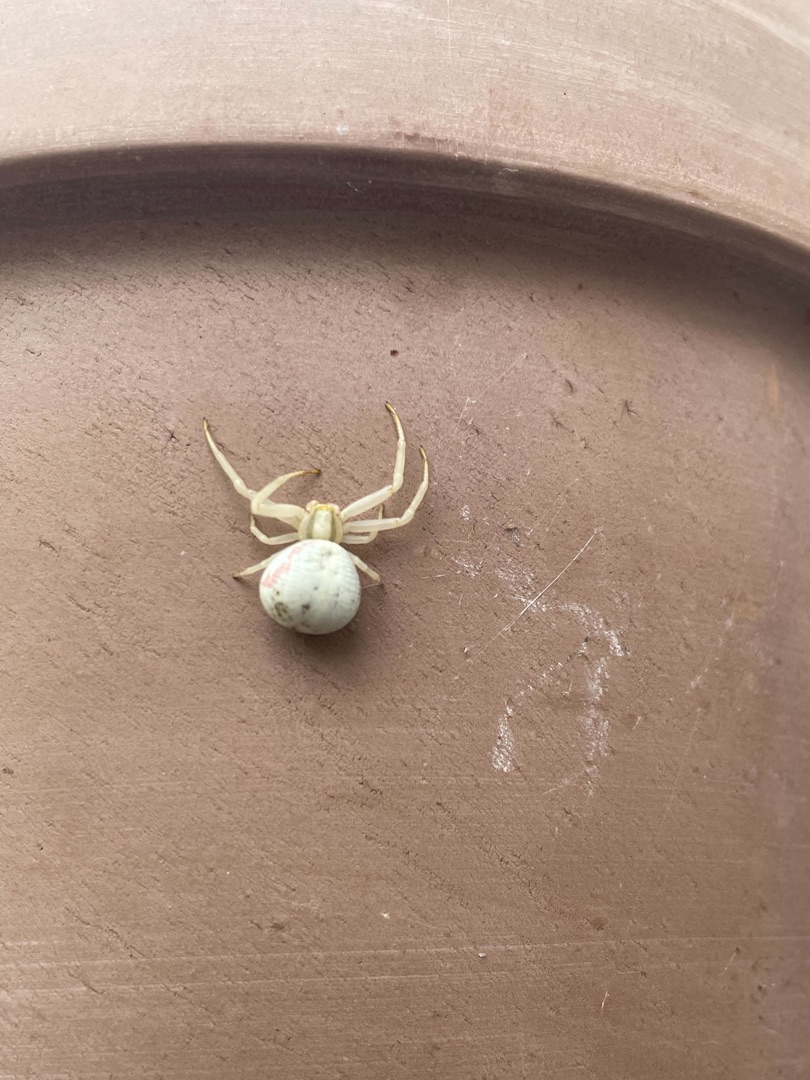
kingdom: Animalia
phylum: Arthropoda
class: Arachnida
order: Araneae
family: Thomisidae
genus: Misumena
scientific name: Misumena vatia
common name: Kamæleonedderkop
